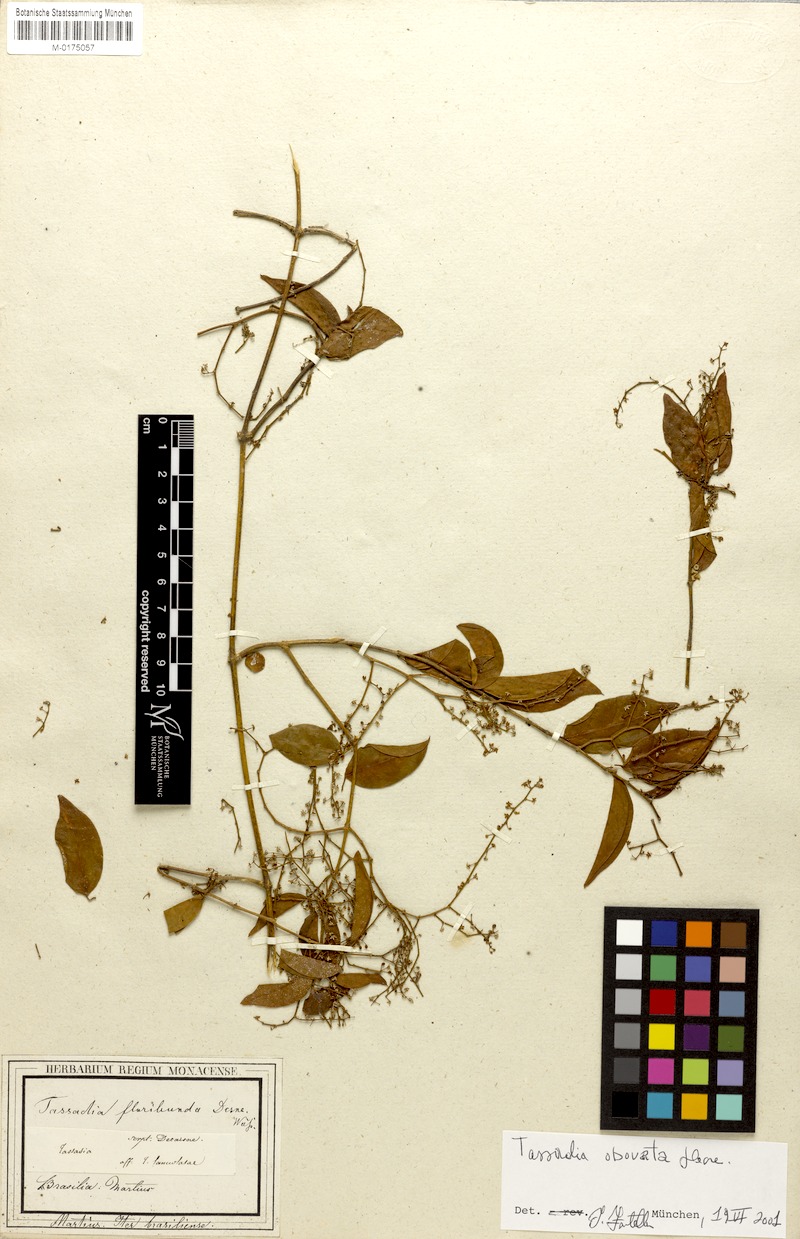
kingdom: Plantae
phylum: Tracheophyta
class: Magnoliopsida
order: Gentianales
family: Apocynaceae
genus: Tassadia
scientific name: Tassadia obovata
